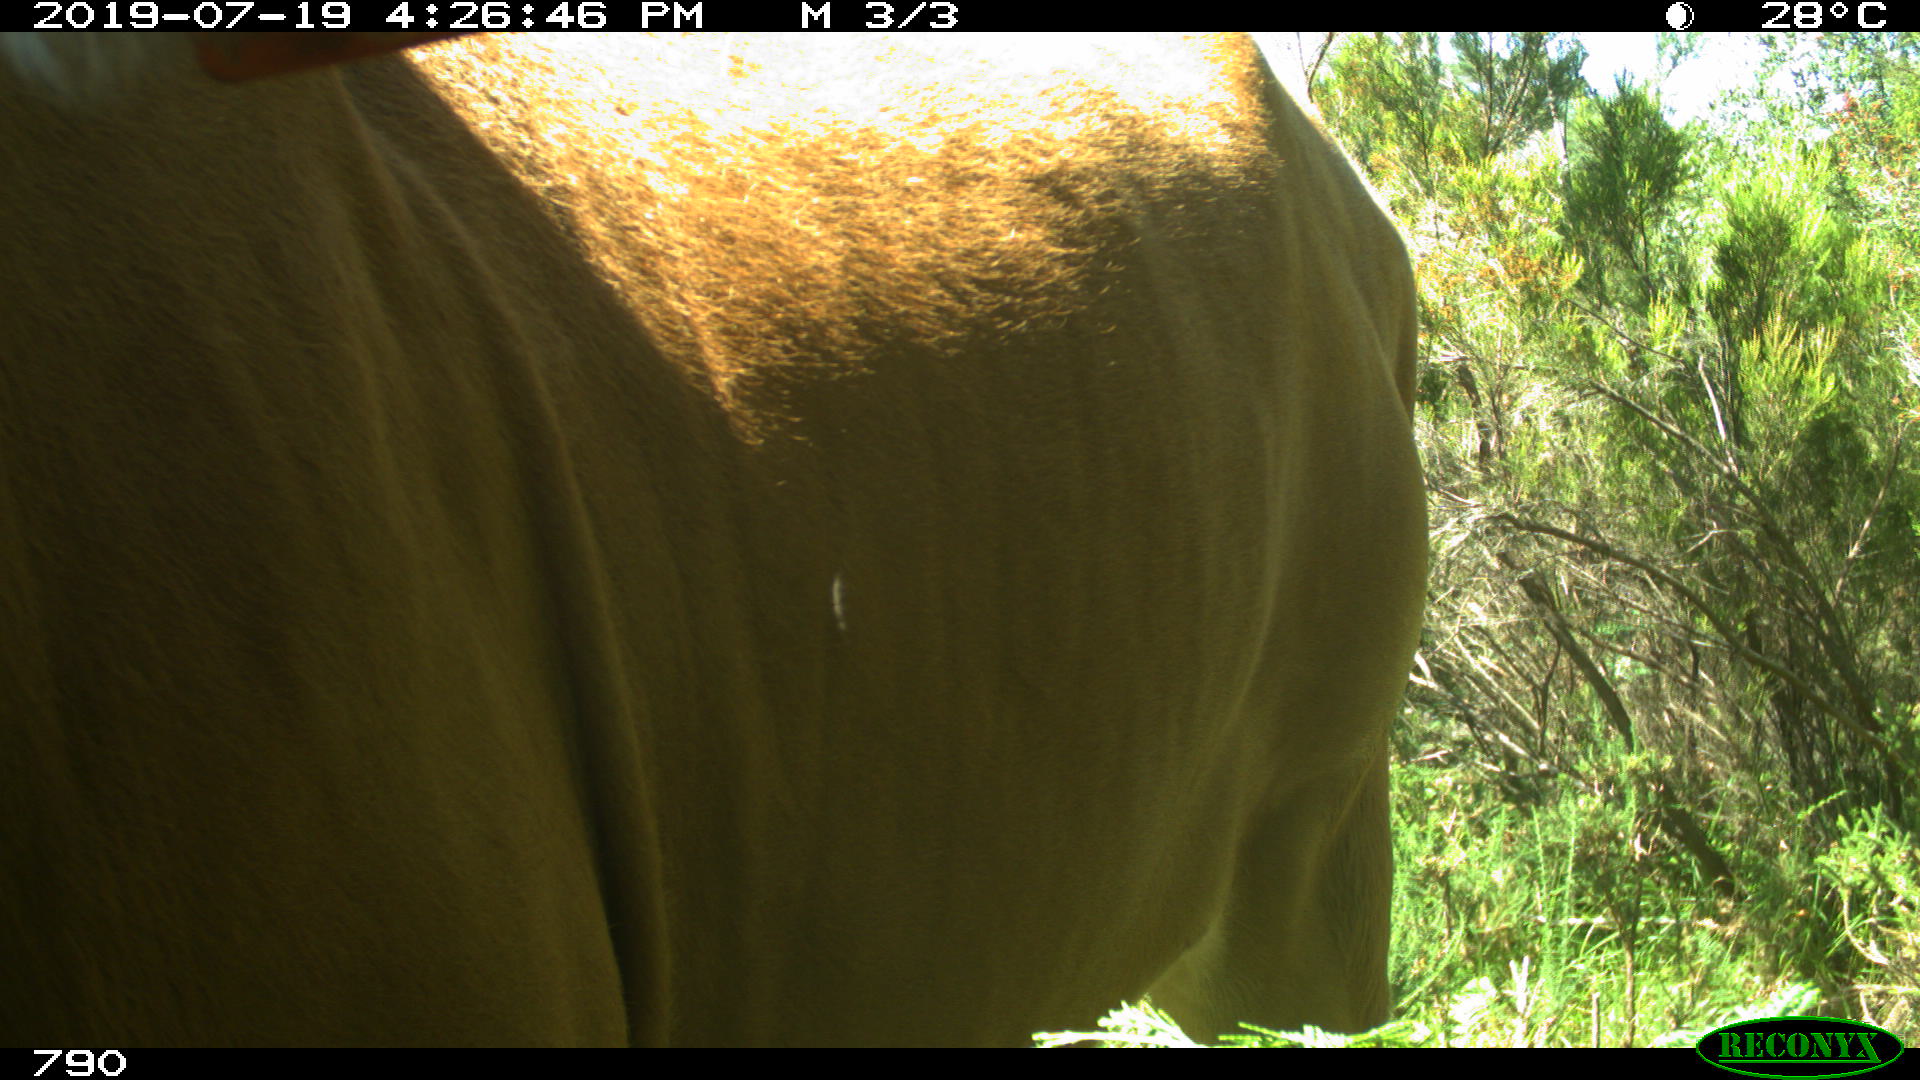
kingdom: Animalia
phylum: Chordata
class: Mammalia
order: Artiodactyla
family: Bovidae
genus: Bos
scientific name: Bos taurus
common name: Domesticated cattle
